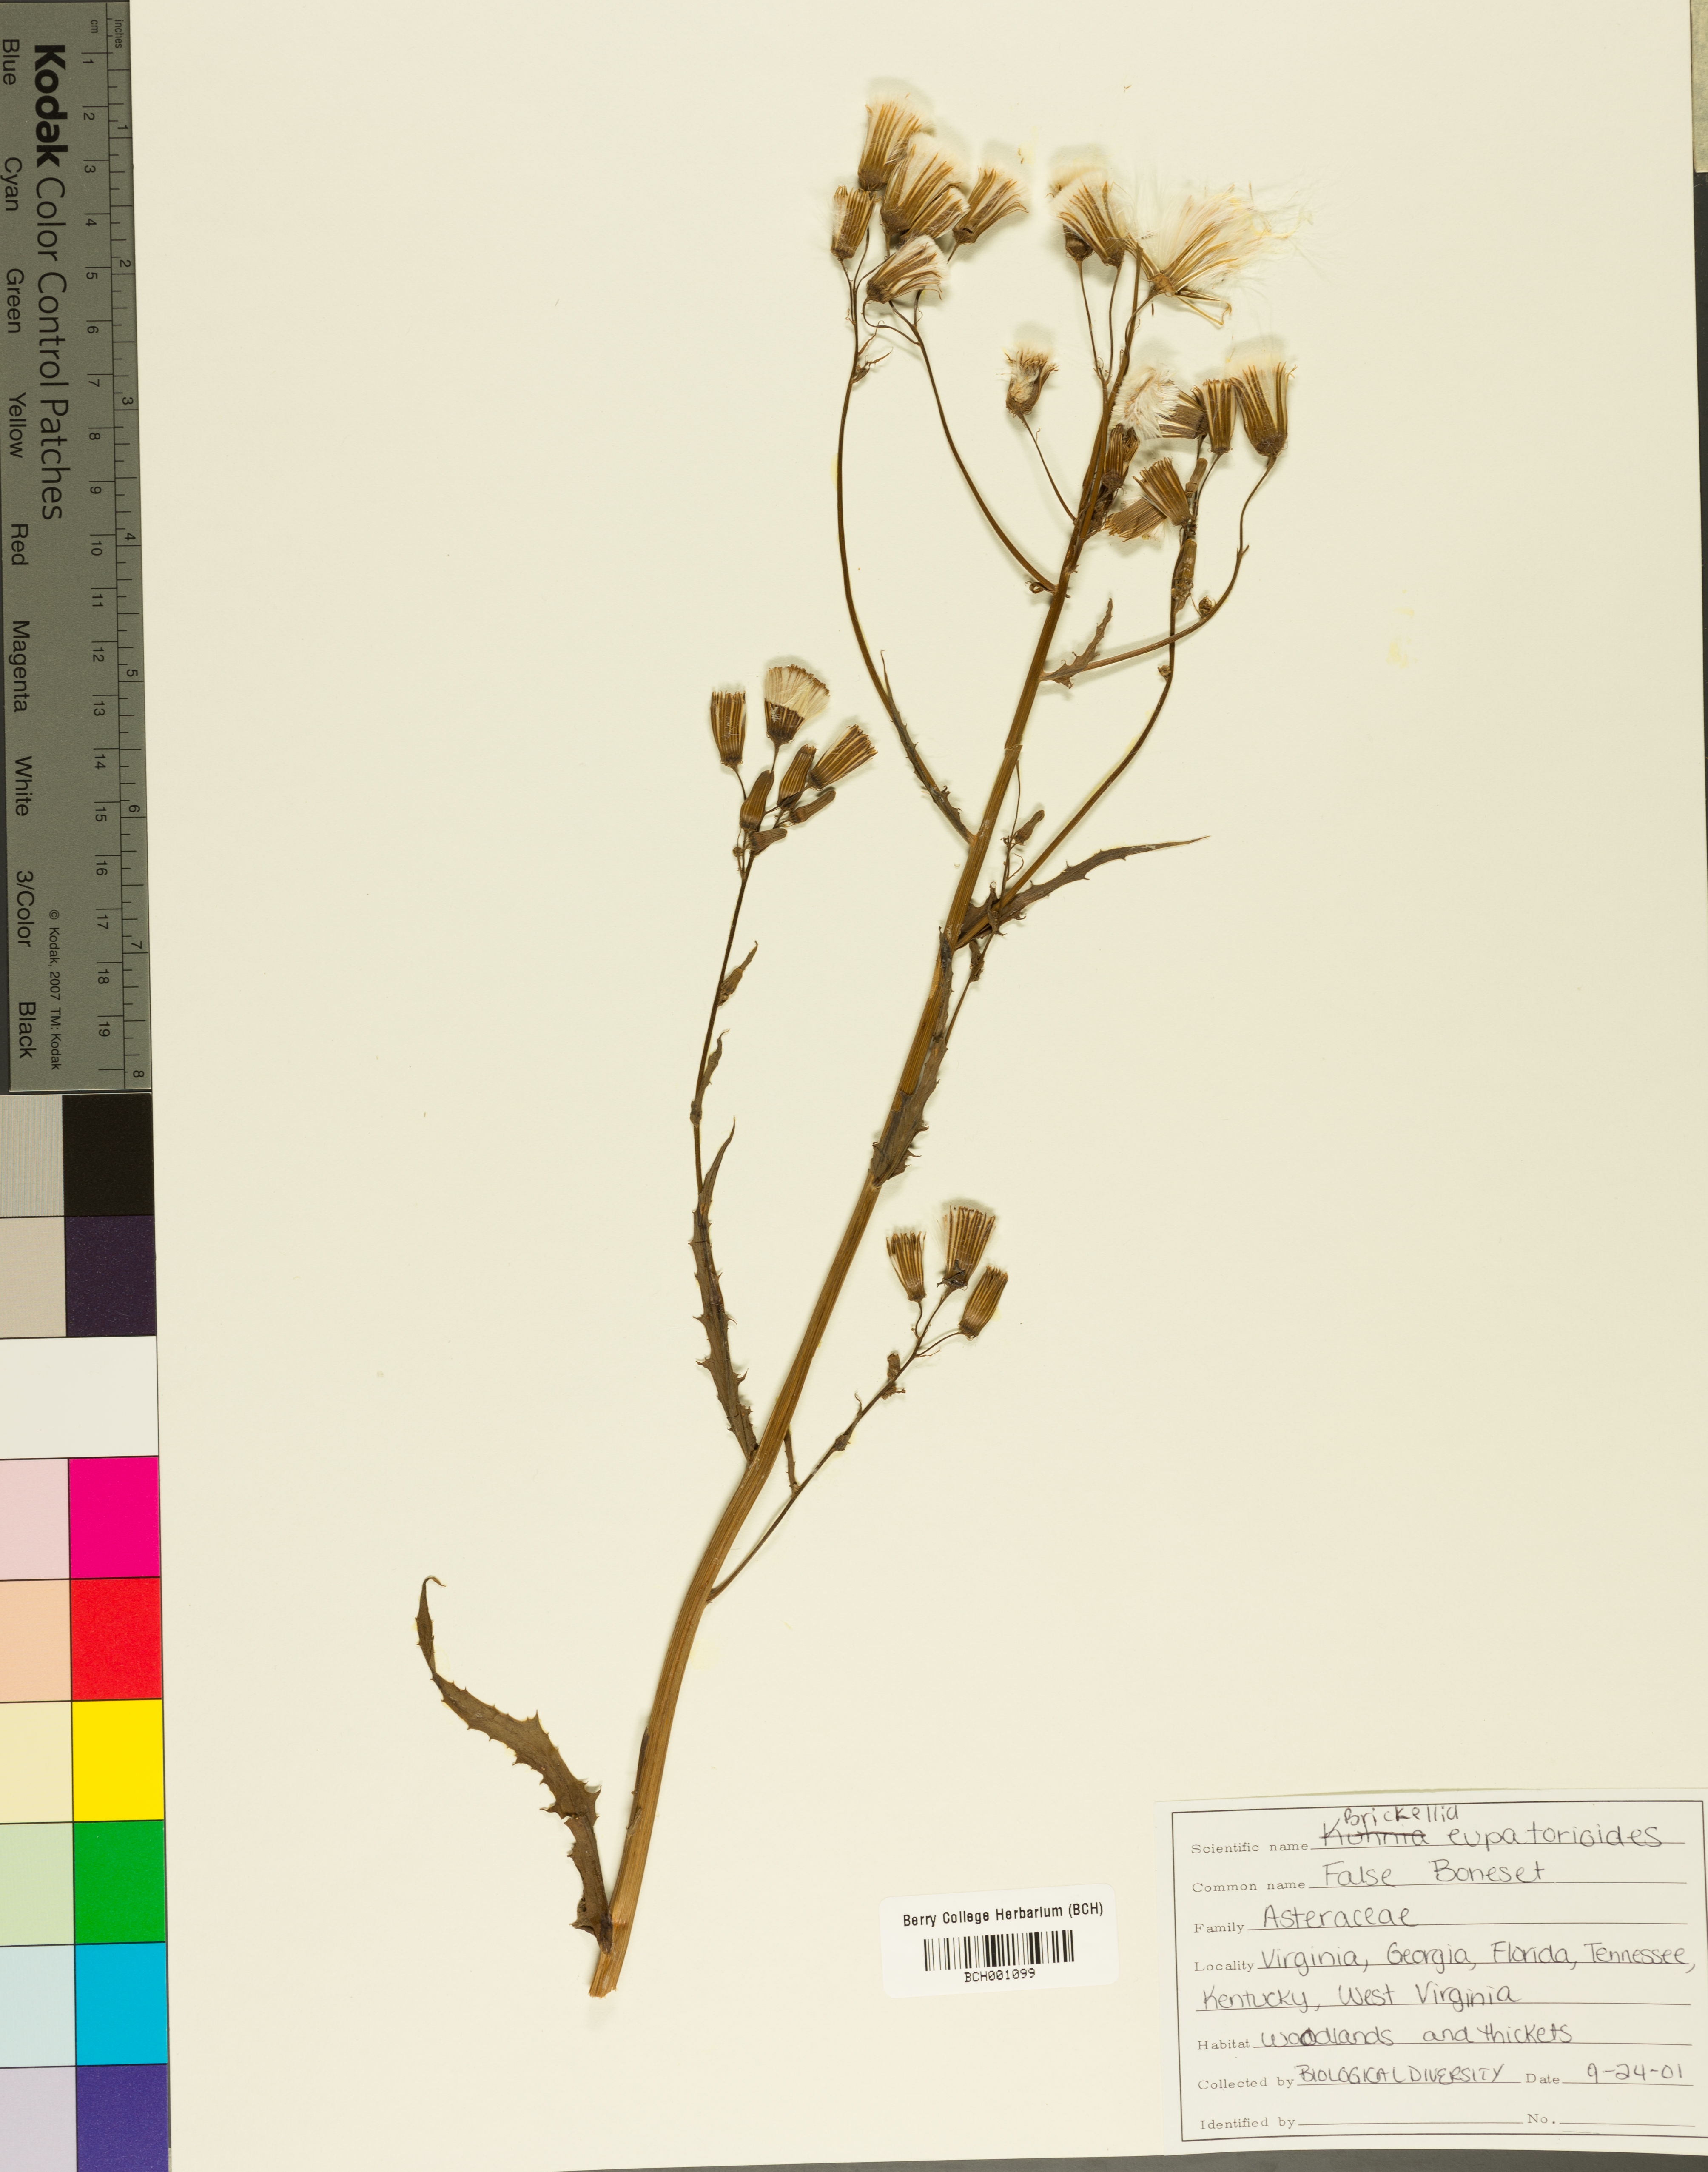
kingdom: Plantae
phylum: Tracheophyta
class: Magnoliopsida
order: Asterales
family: Asteraceae
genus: Brickellia
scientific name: Brickellia eupatorioides
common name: False boneset
